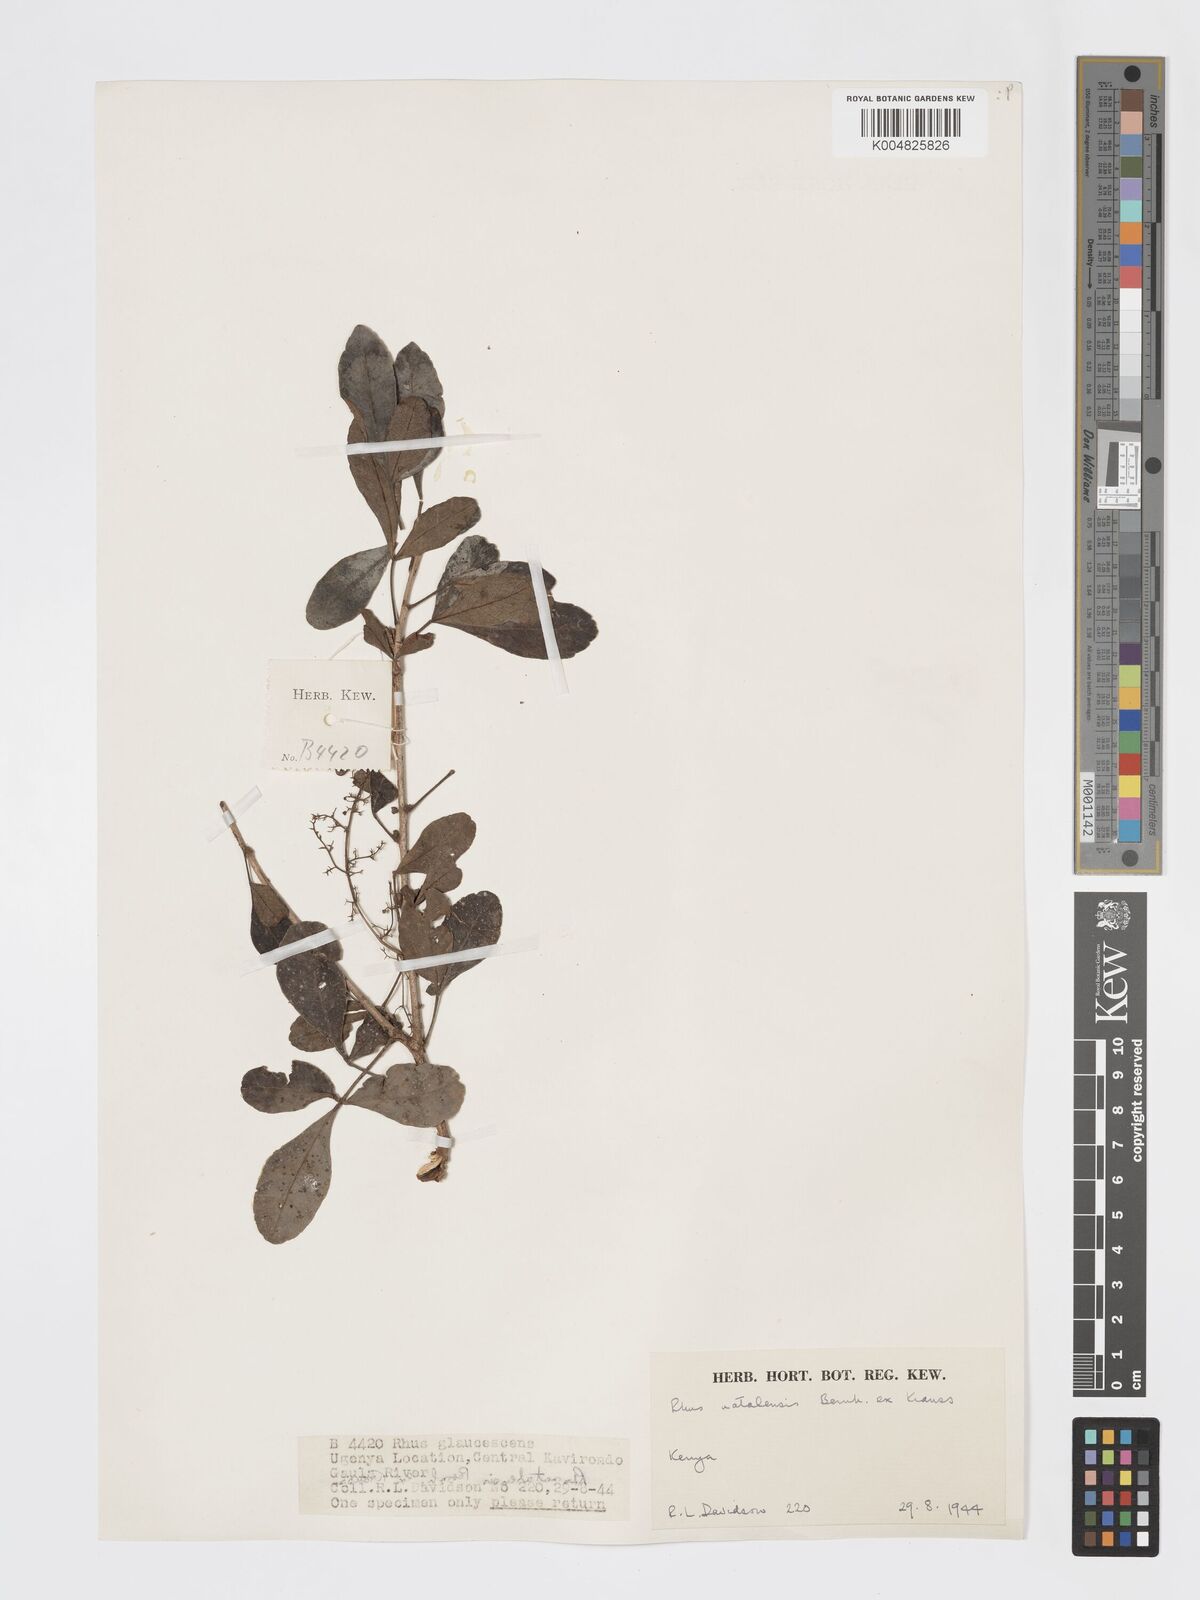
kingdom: Plantae
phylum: Tracheophyta
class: Magnoliopsida
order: Sapindales
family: Anacardiaceae
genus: Searsia
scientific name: Searsia natalensis
